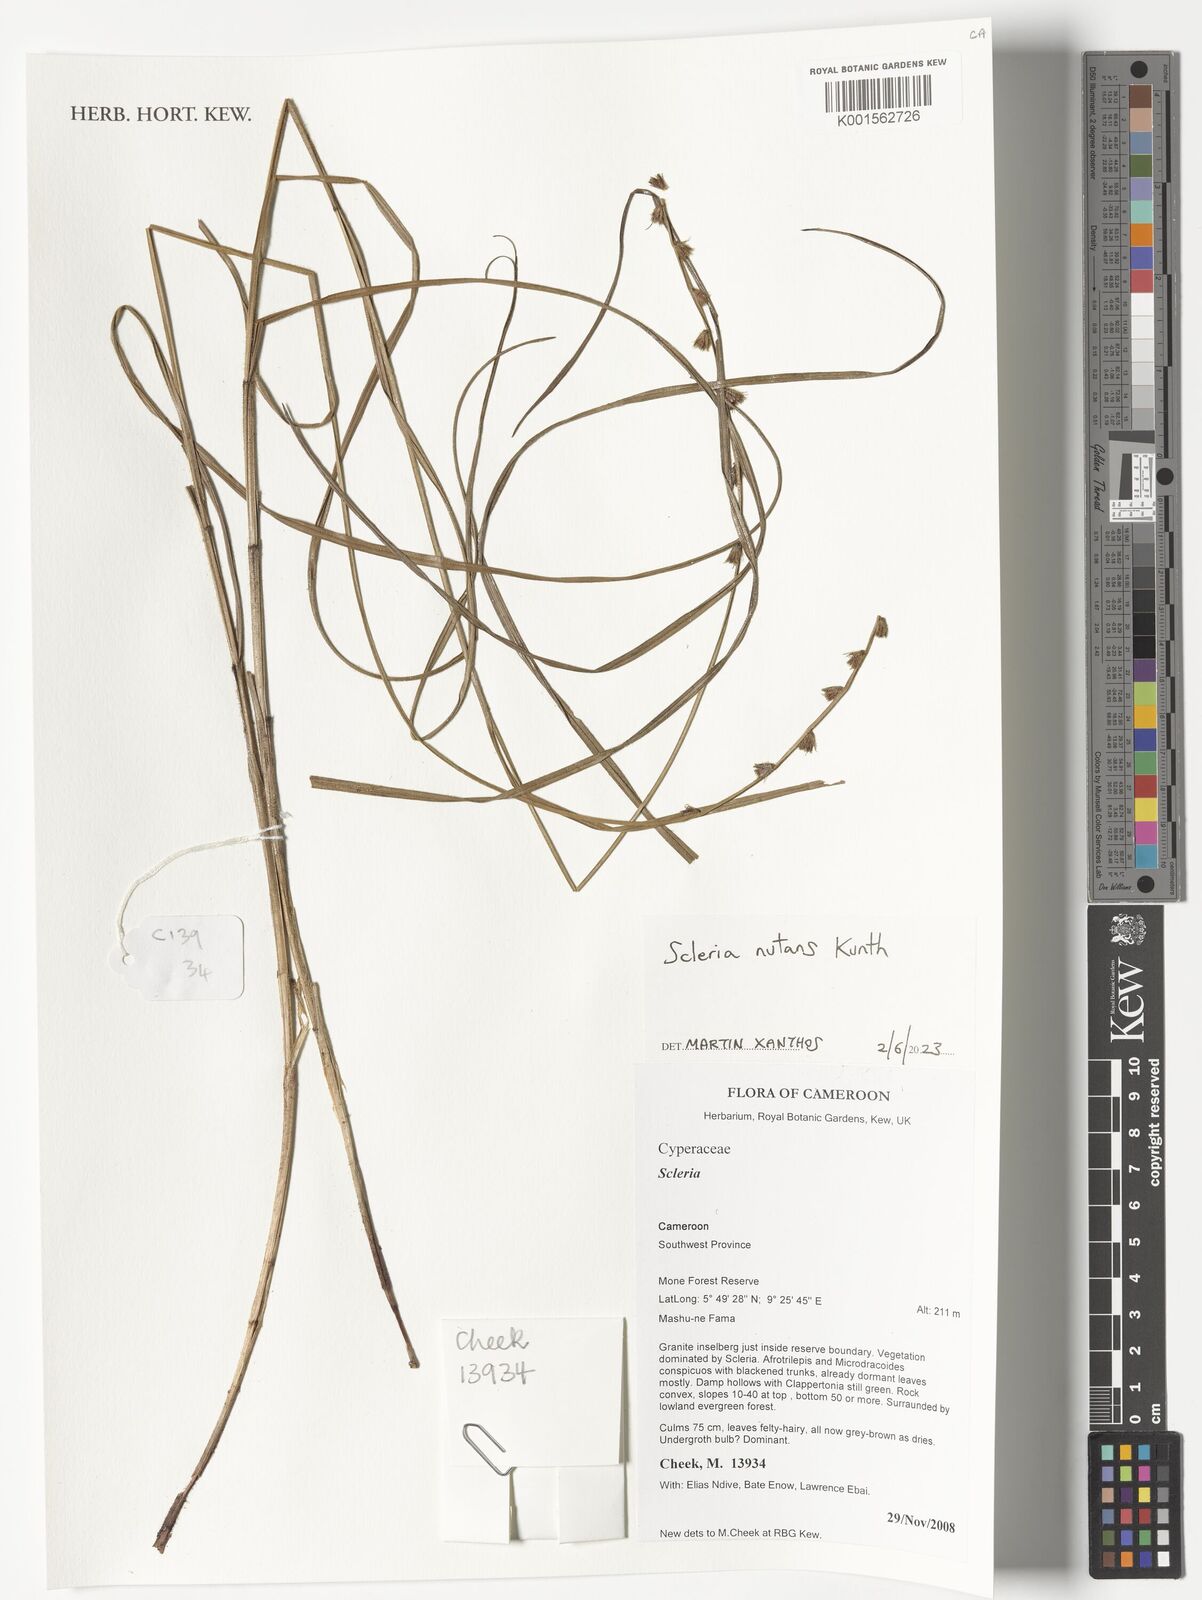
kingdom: Plantae
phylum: Tracheophyta
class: Liliopsida
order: Poales
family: Cyperaceae
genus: Scleria
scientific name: Scleria
